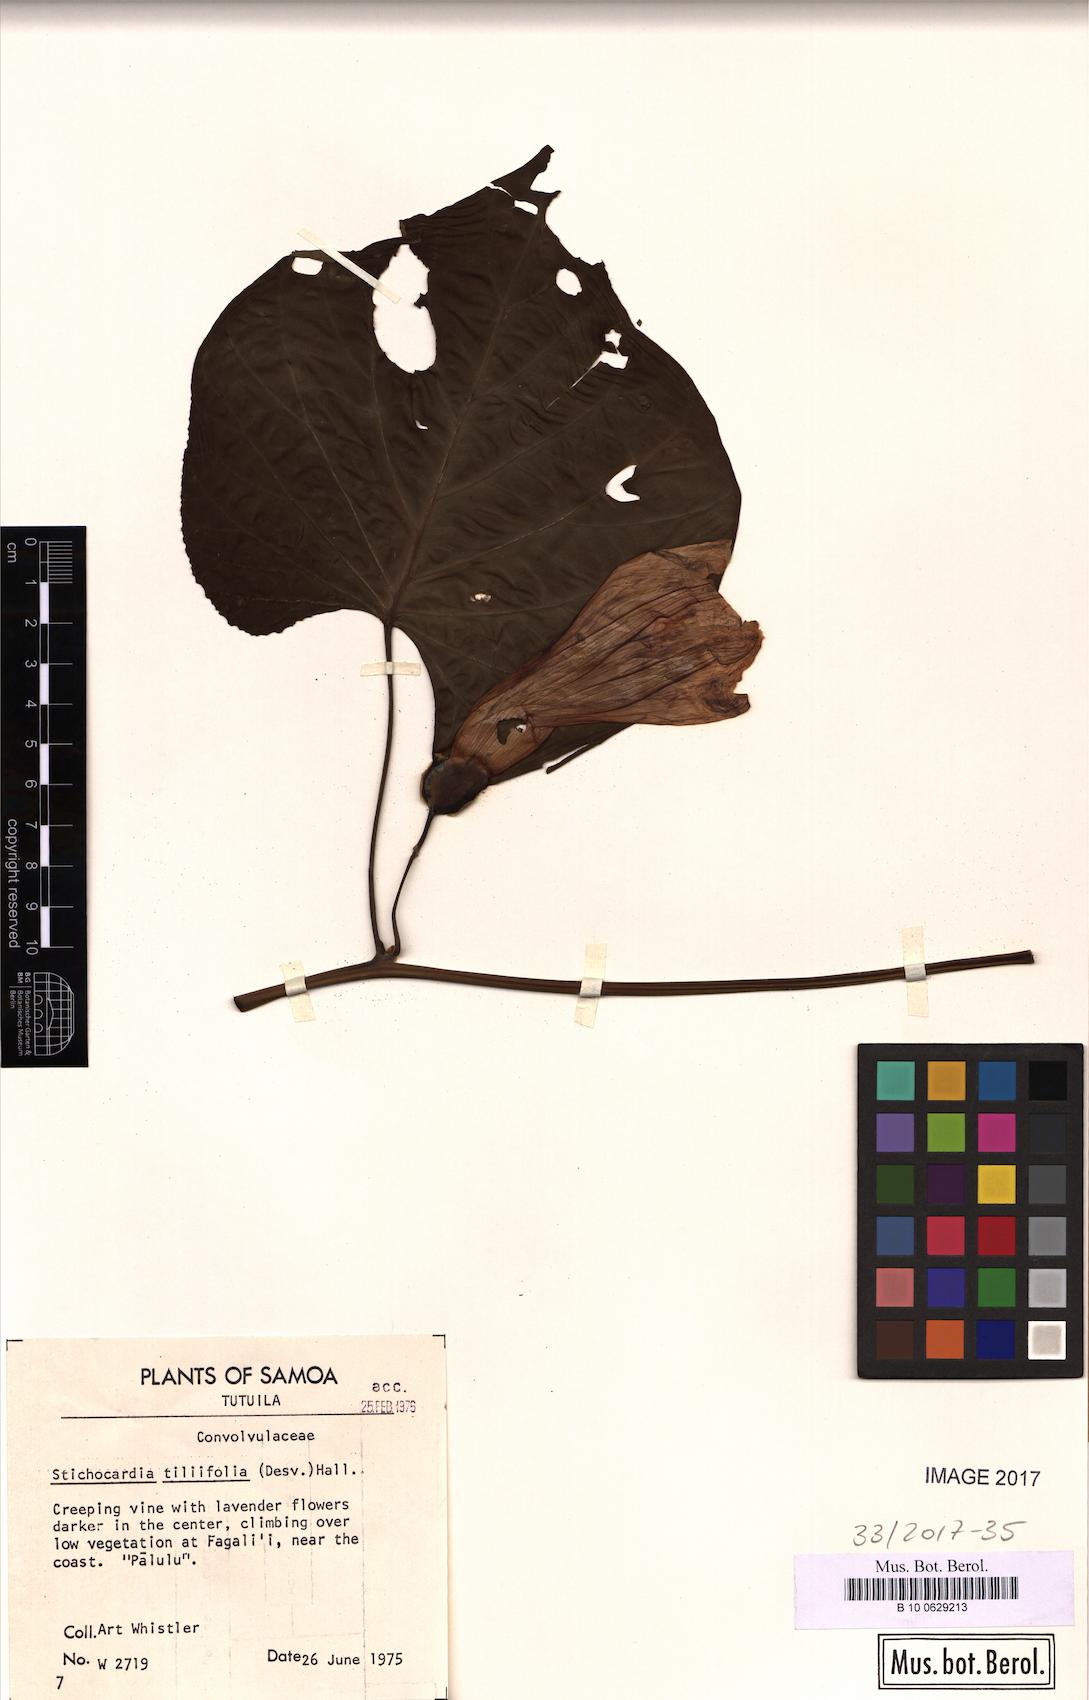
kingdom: Plantae
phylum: Tracheophyta
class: Magnoliopsida
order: Solanales
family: Convolvulaceae
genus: Stictocardia
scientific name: Stictocardia tiliifolia
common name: Spottedheart
